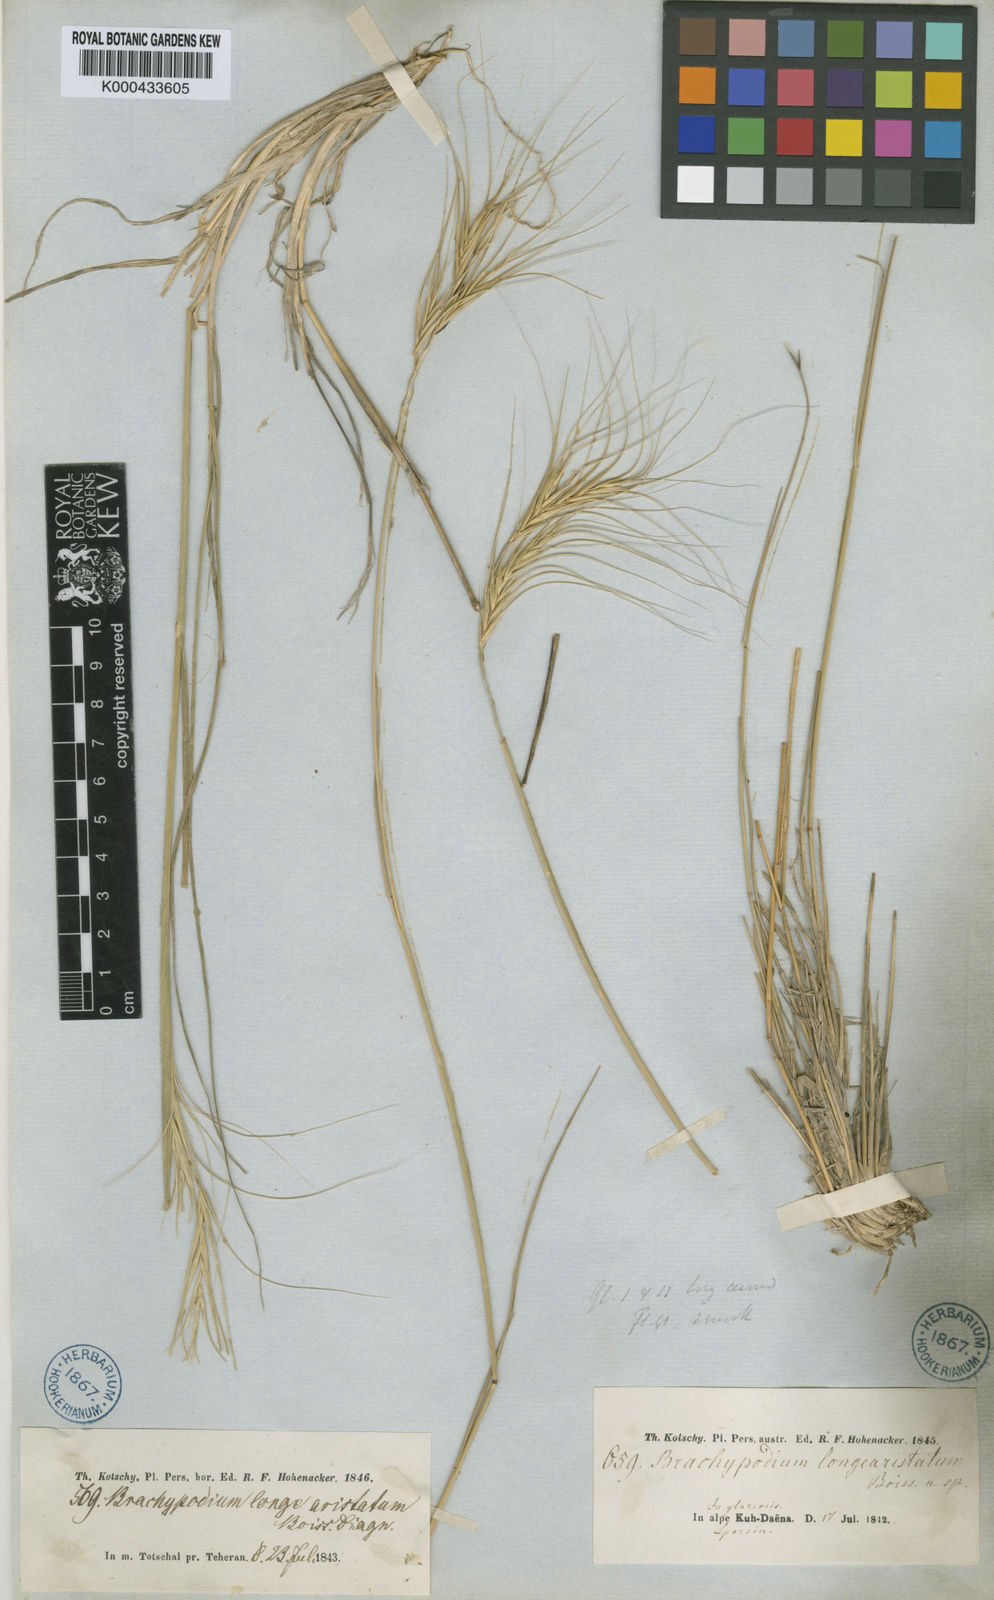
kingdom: Plantae
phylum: Tracheophyta
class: Liliopsida
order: Poales
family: Poaceae
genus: Elymus
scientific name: Elymus
